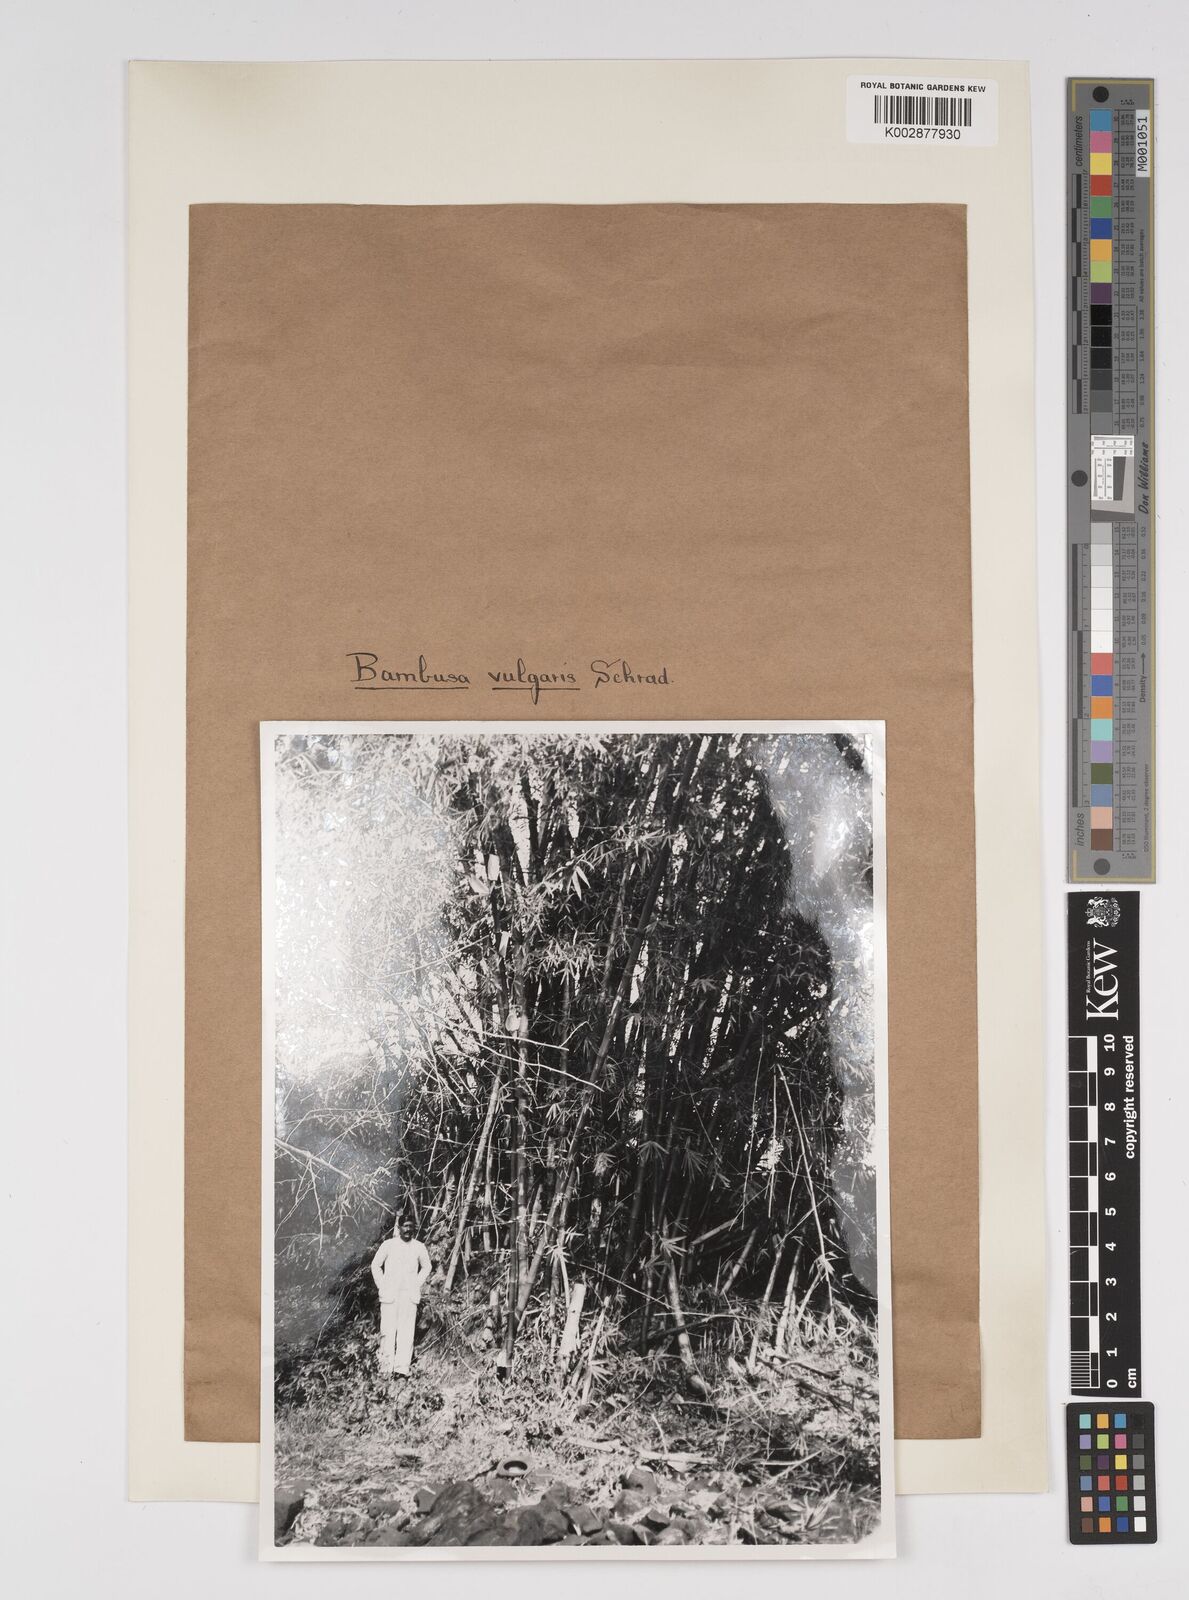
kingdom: Plantae
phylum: Tracheophyta
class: Liliopsida
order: Poales
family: Poaceae
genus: Bambusa
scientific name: Bambusa vulgaris
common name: Common bamboo
